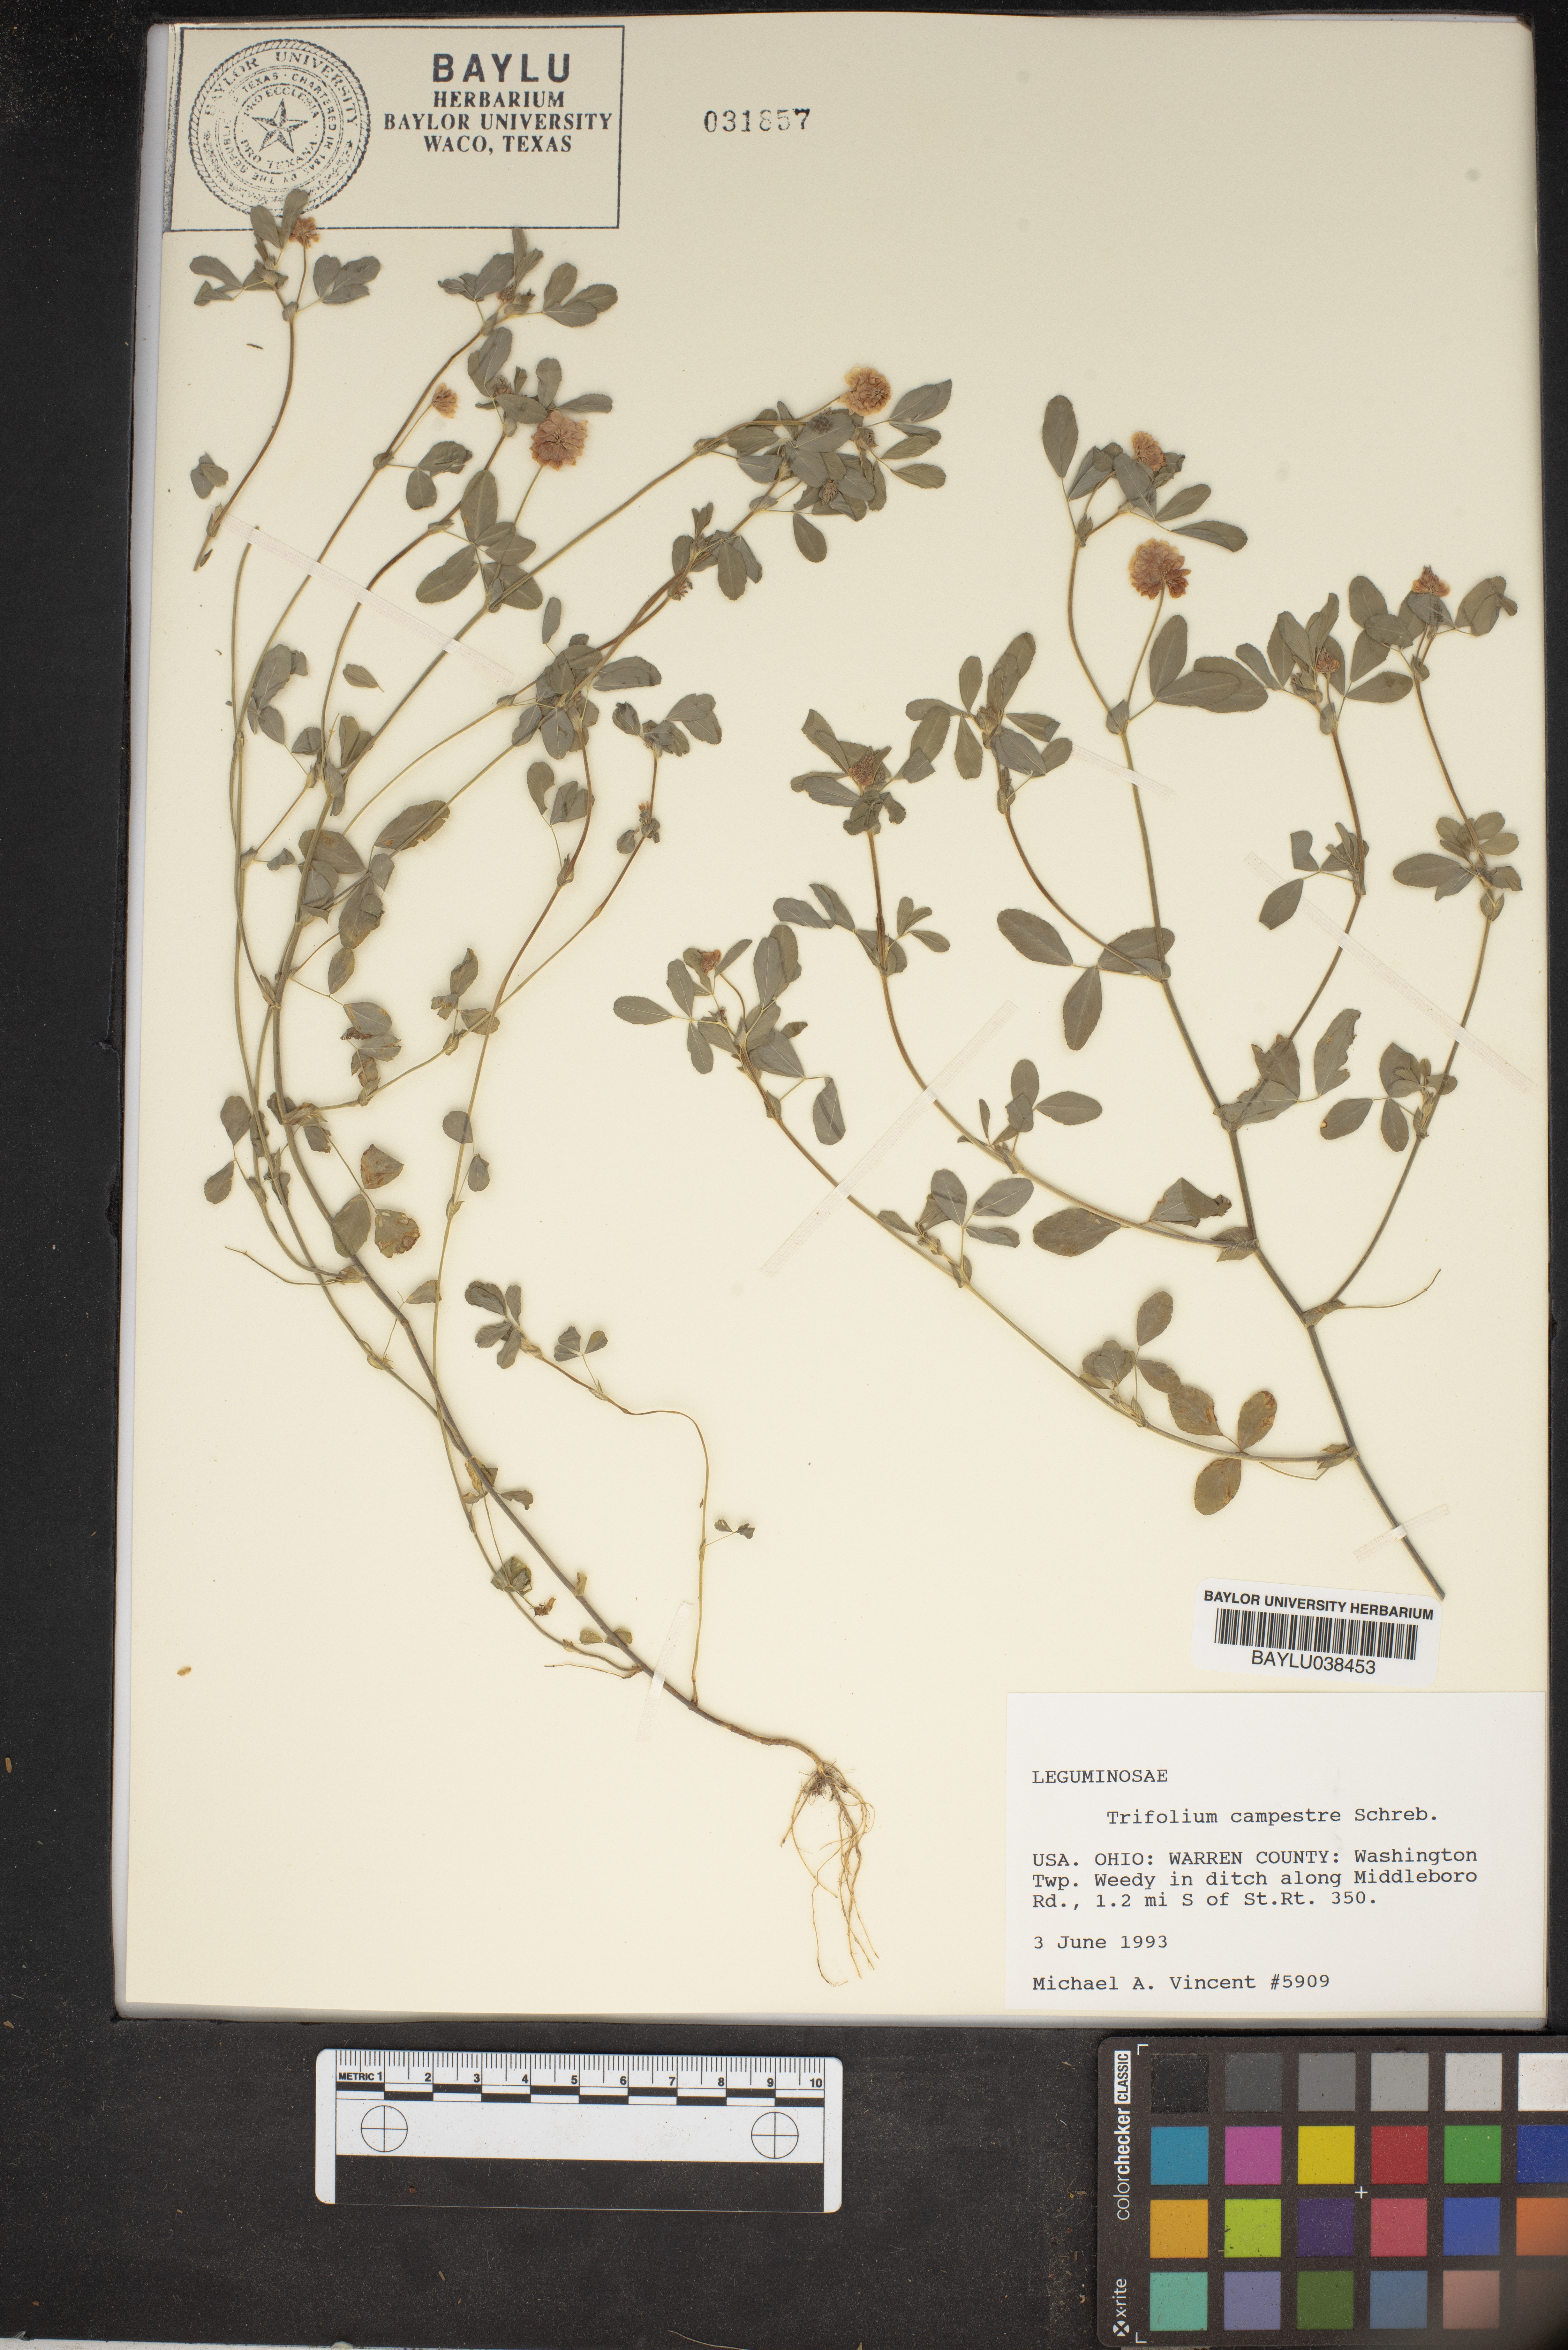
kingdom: Plantae
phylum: Tracheophyta
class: Magnoliopsida
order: Fabales
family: Fabaceae
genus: Trifolium
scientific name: Trifolium campestre
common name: Field clover
